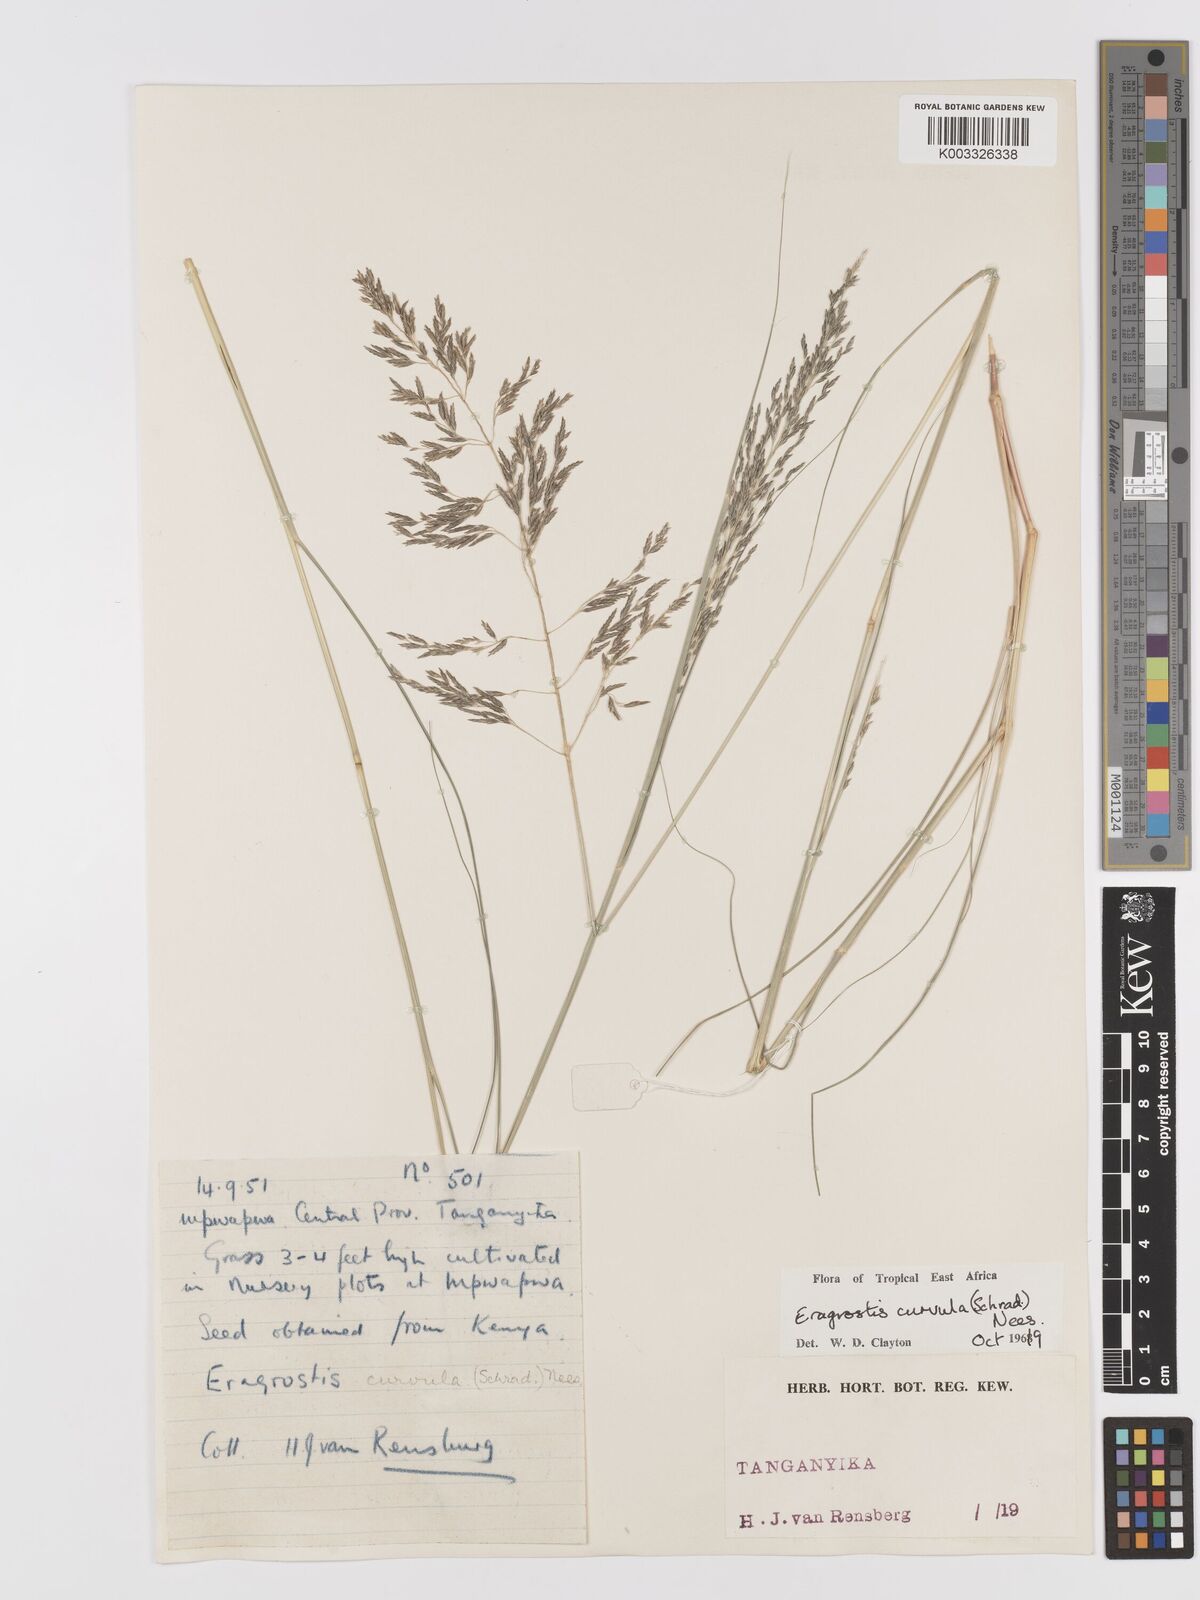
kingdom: Plantae
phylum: Tracheophyta
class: Liliopsida
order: Poales
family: Poaceae
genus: Eragrostis
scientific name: Eragrostis curvula
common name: African love-grass
